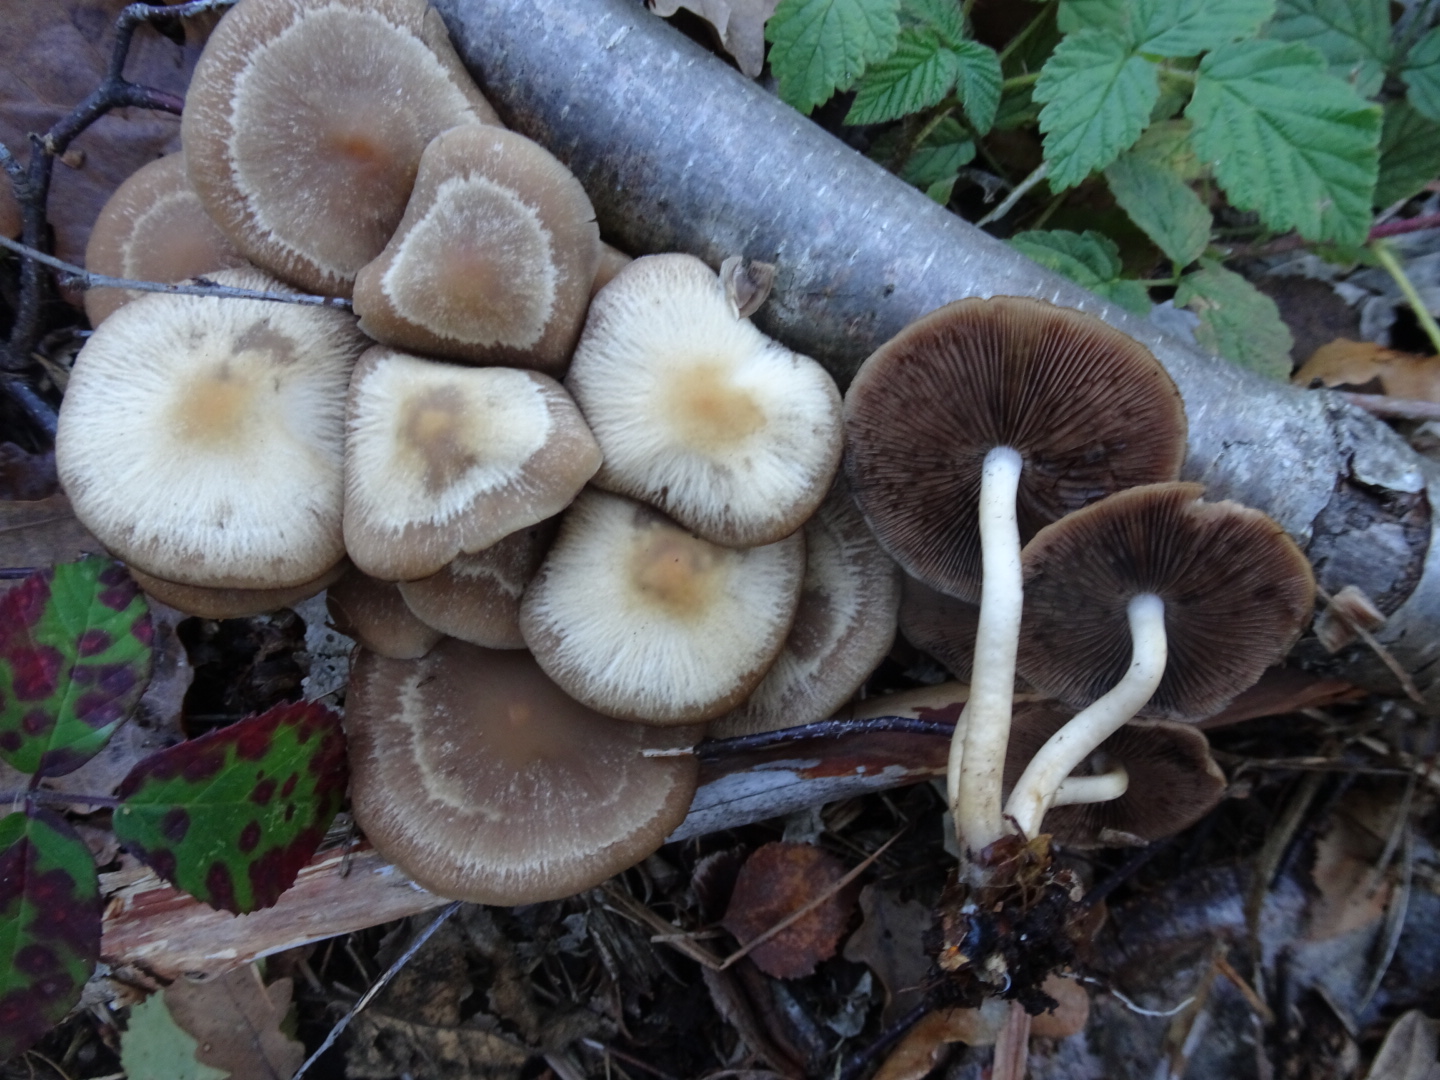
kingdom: Fungi
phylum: Basidiomycota
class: Agaricomycetes
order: Agaricales
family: Psathyrellaceae
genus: Psathyrella
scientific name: Psathyrella piluliformis
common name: lysstokket mørkhat
